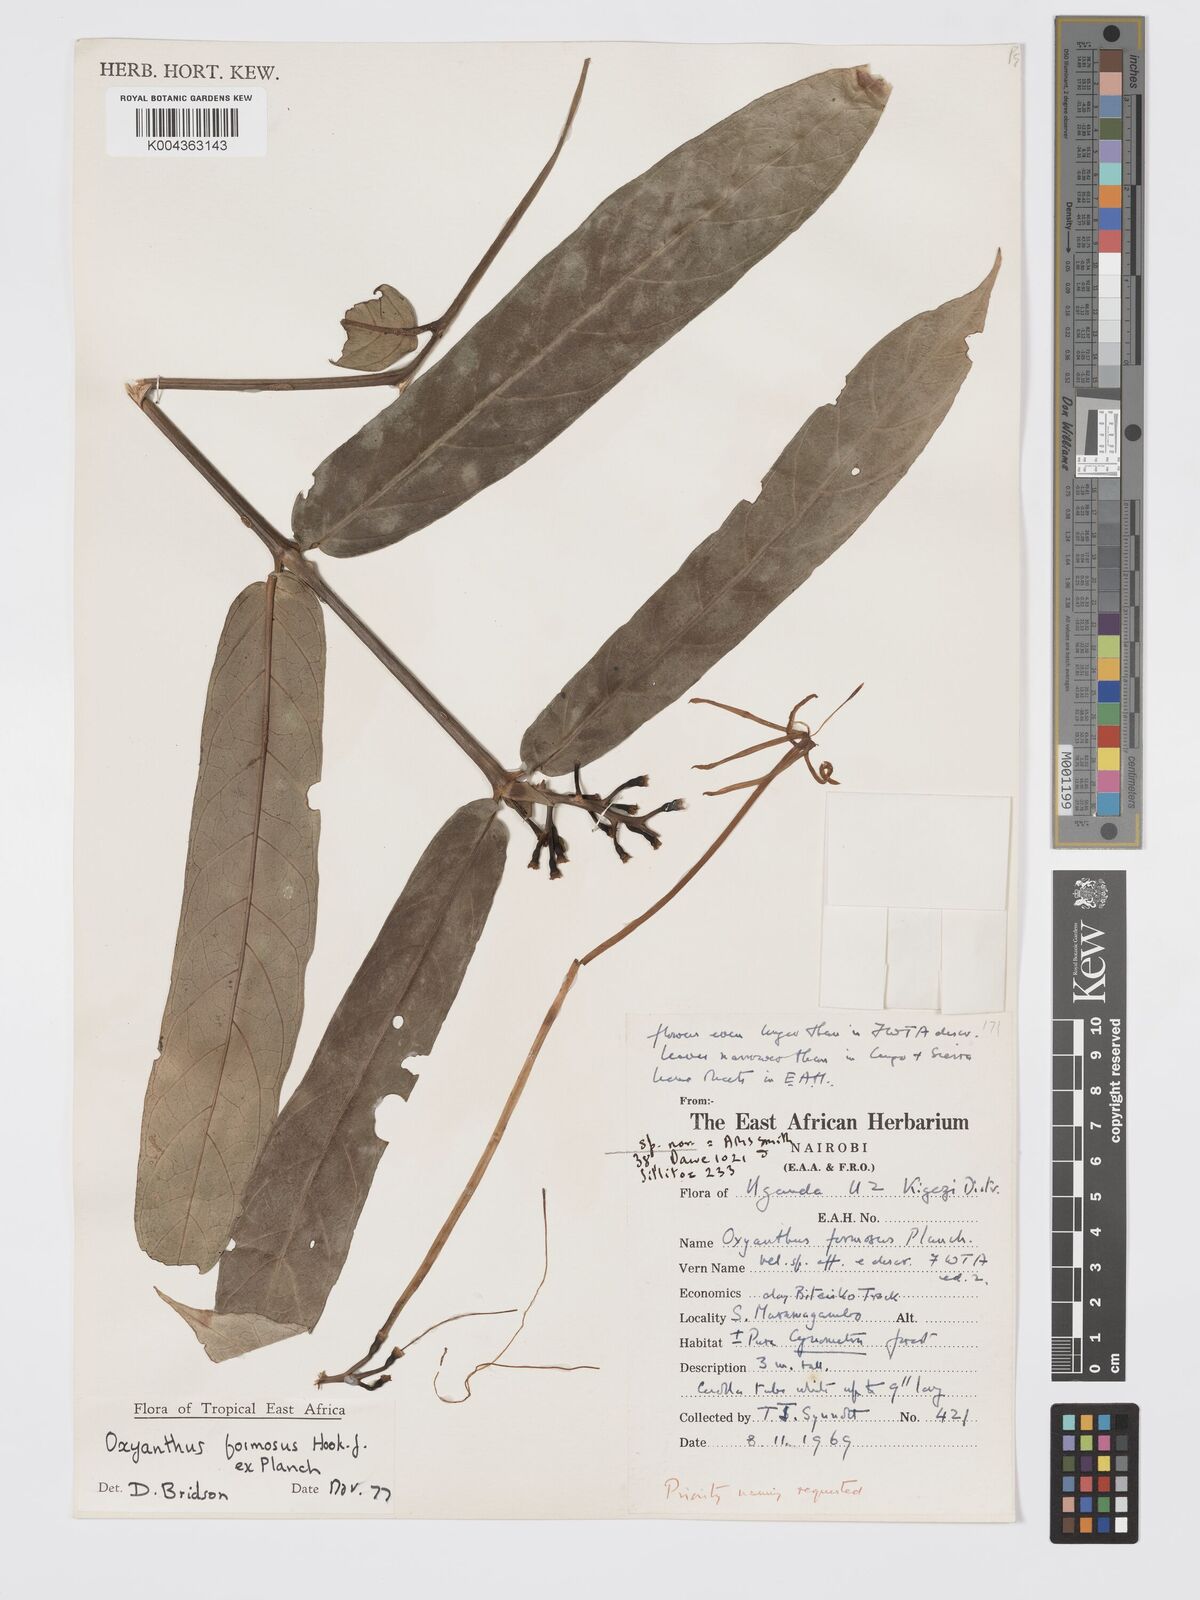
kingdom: Plantae
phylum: Tracheophyta
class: Magnoliopsida
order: Gentianales
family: Rubiaceae
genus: Oxyanthus
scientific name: Oxyanthus formosus
